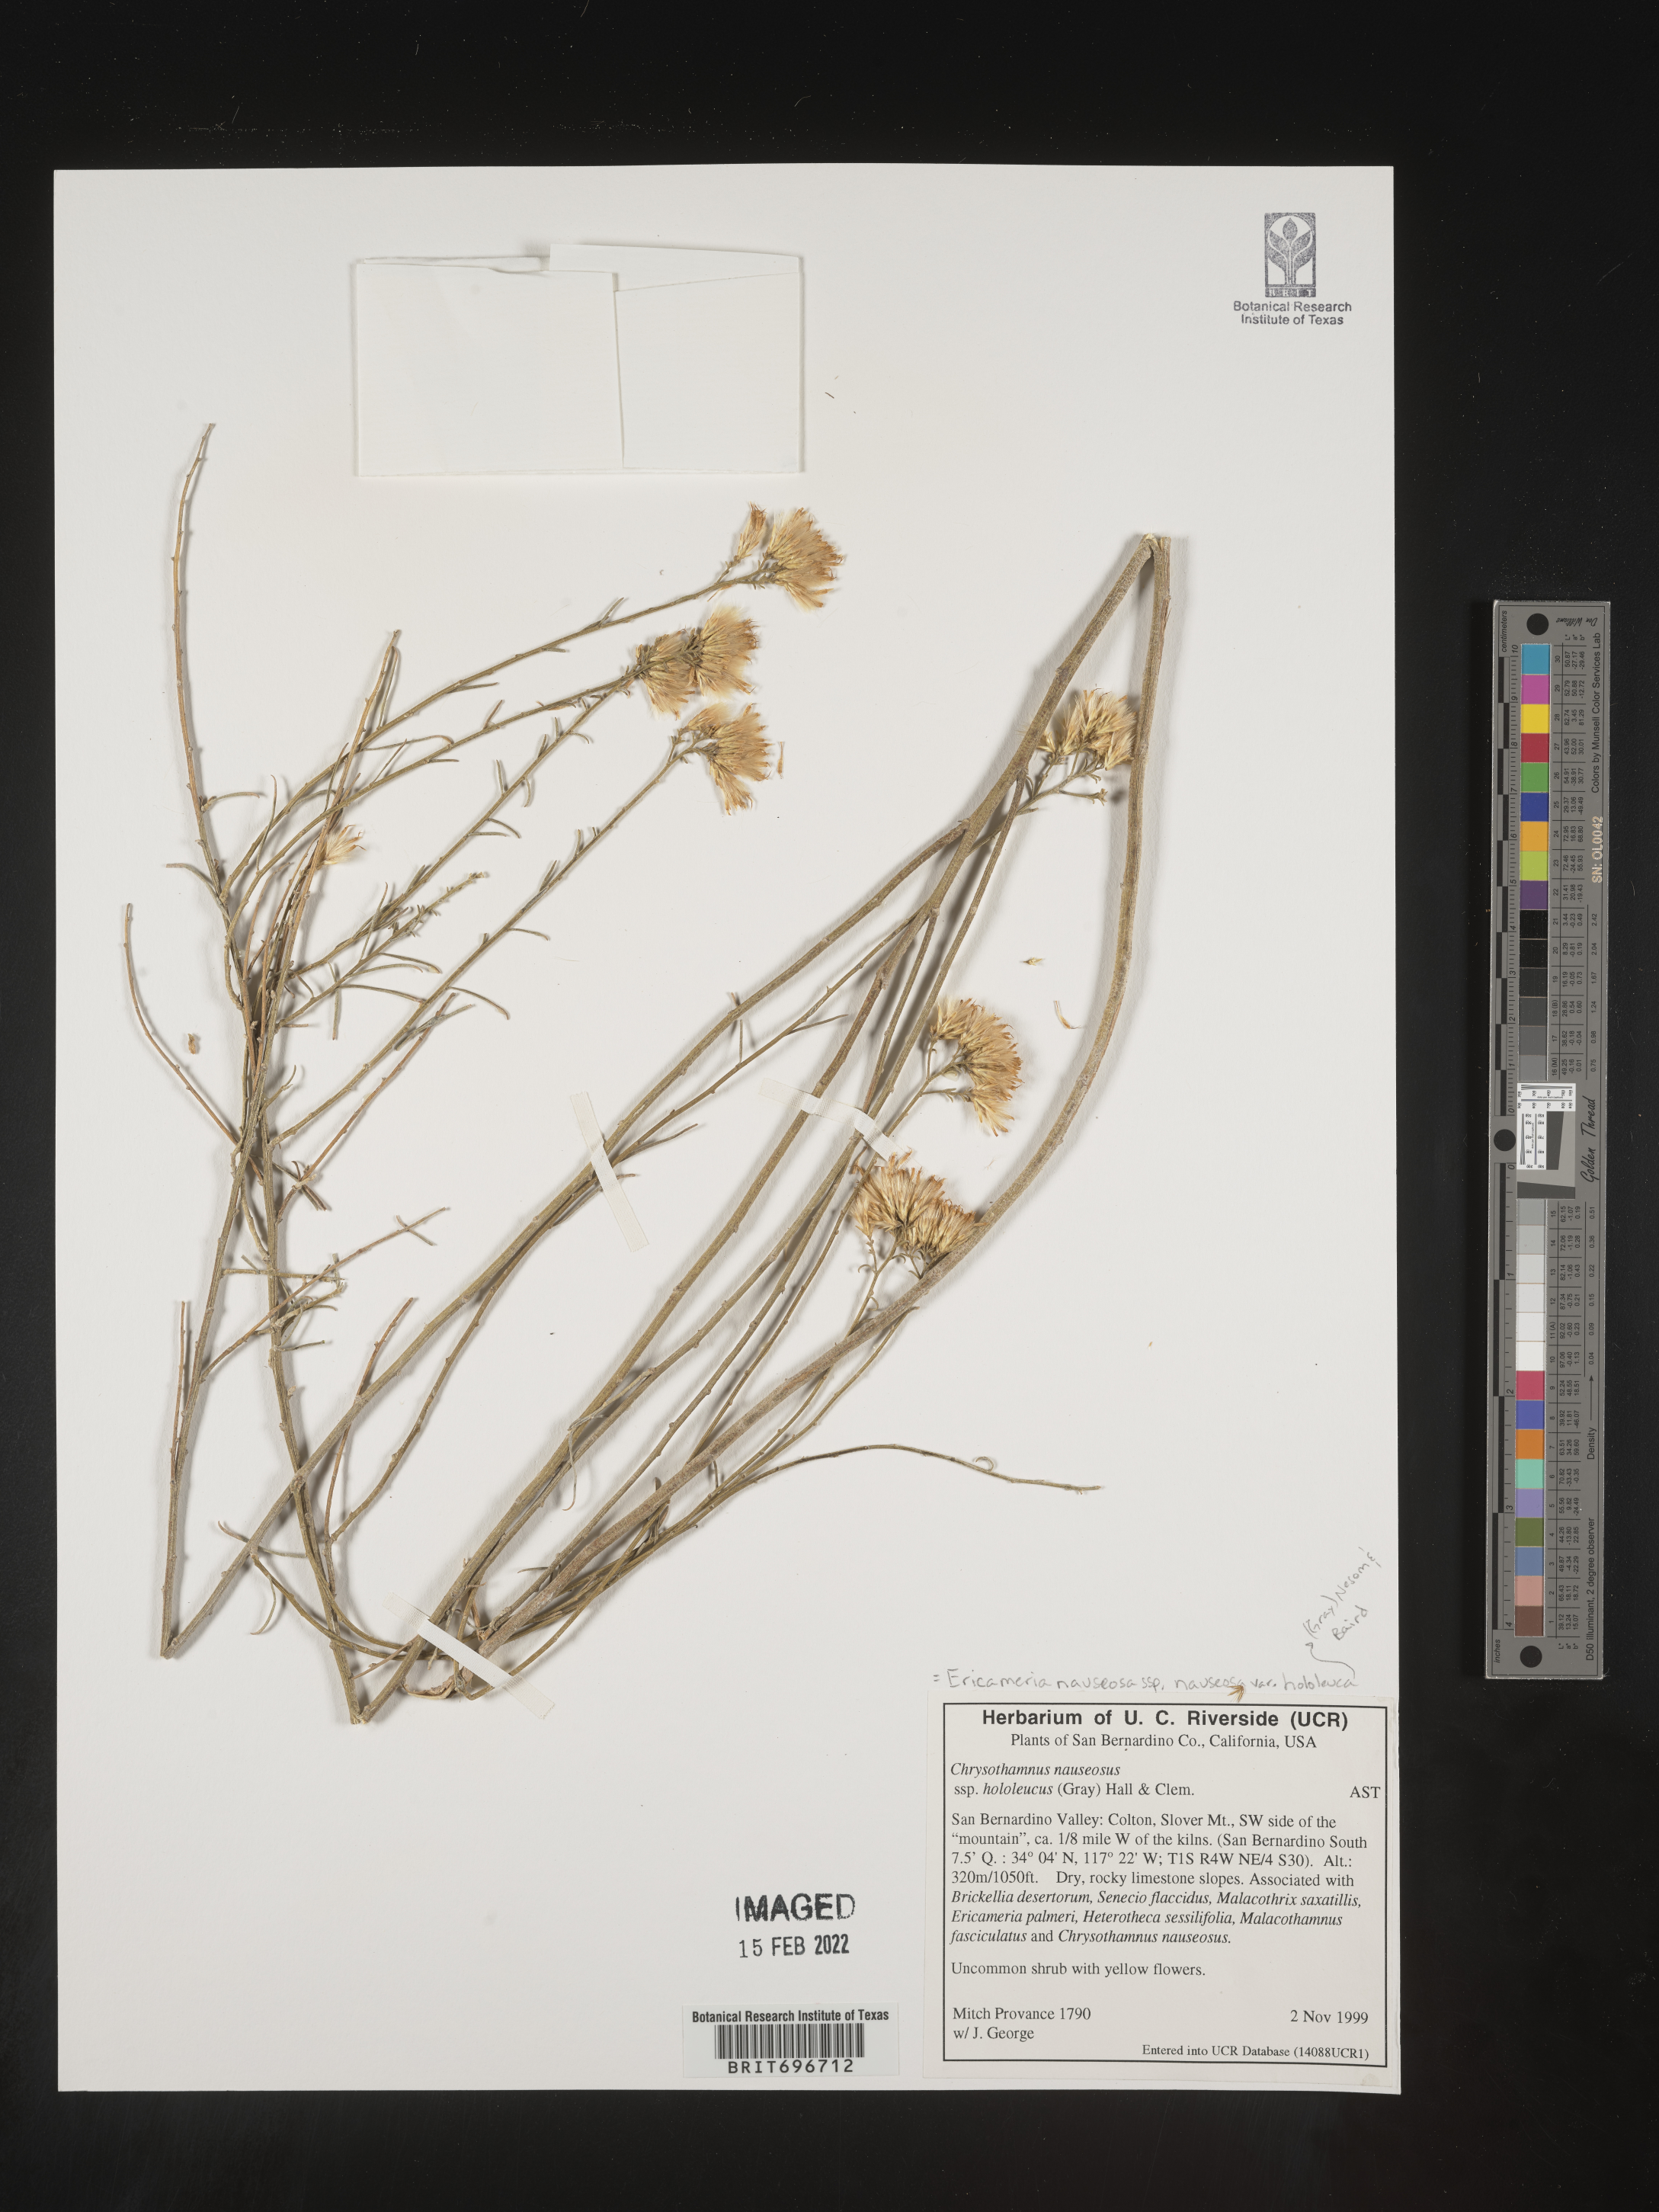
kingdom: Plantae
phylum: Tracheophyta
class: Magnoliopsida
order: Asterales
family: Asteraceae
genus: Ericameria
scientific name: Ericameria nauseosa
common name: Rubber rabbitbrush
